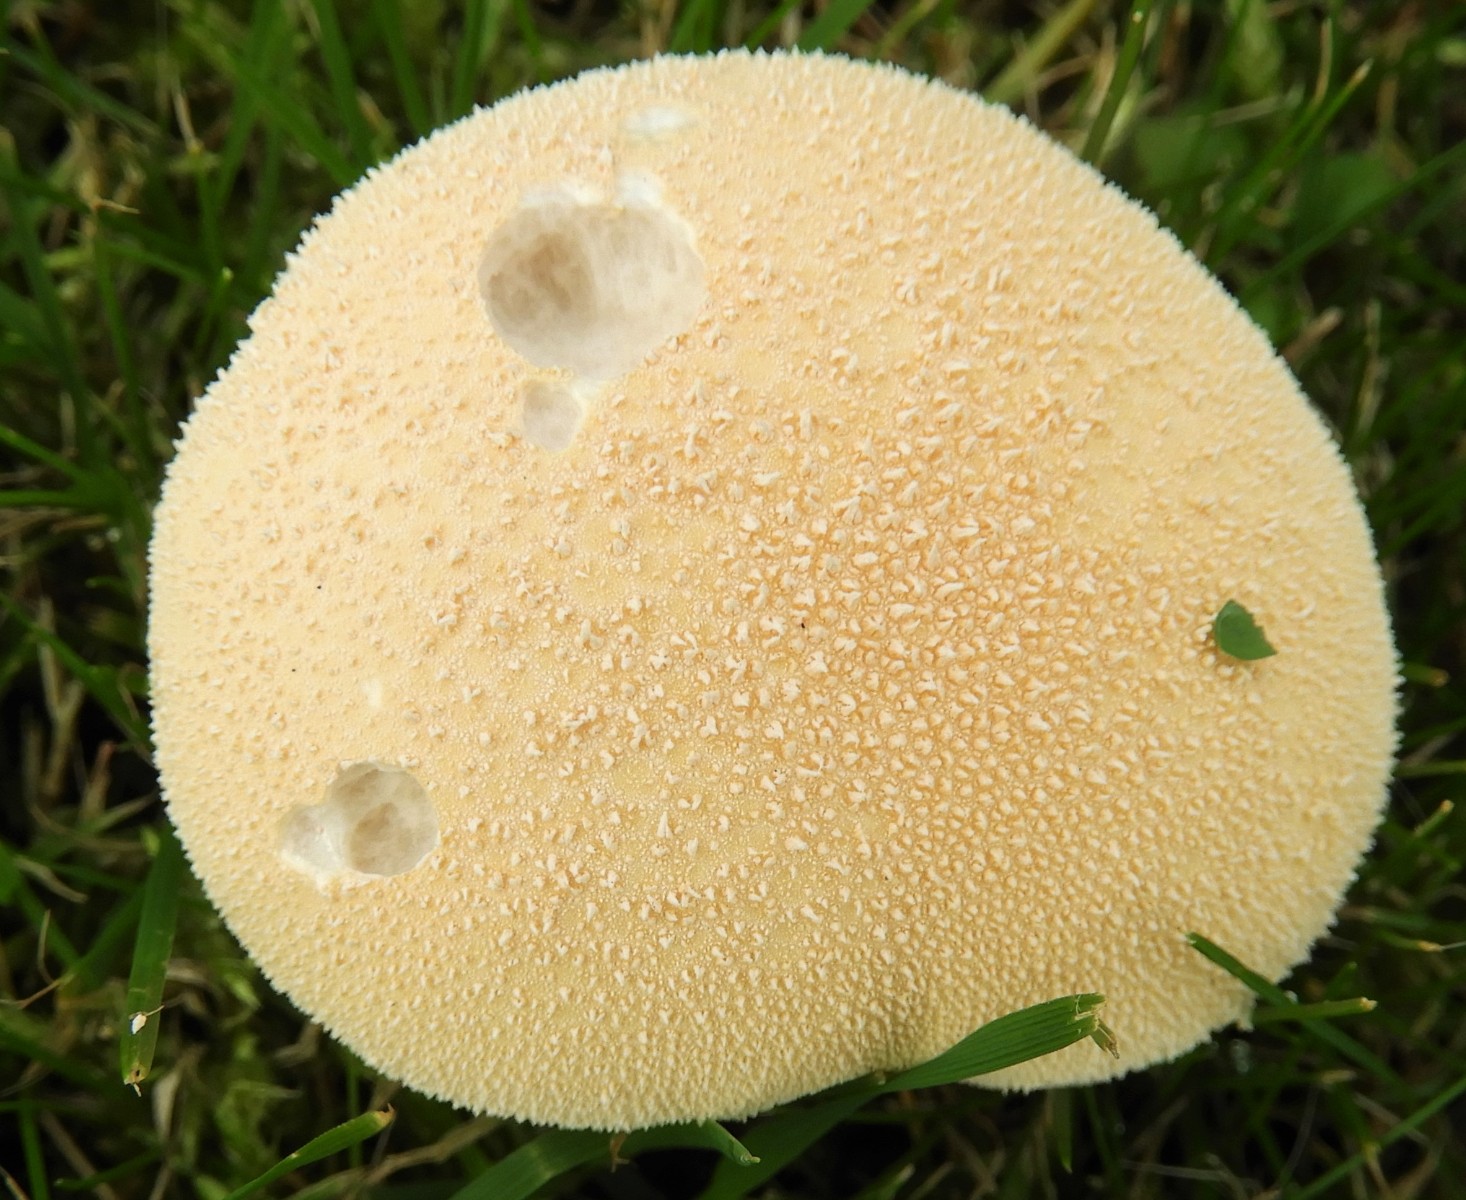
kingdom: Fungi
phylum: Basidiomycota
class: Agaricomycetes
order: Agaricales
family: Lycoperdaceae
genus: Lycoperdon
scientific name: Lycoperdon pratense
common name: flad støvbold
